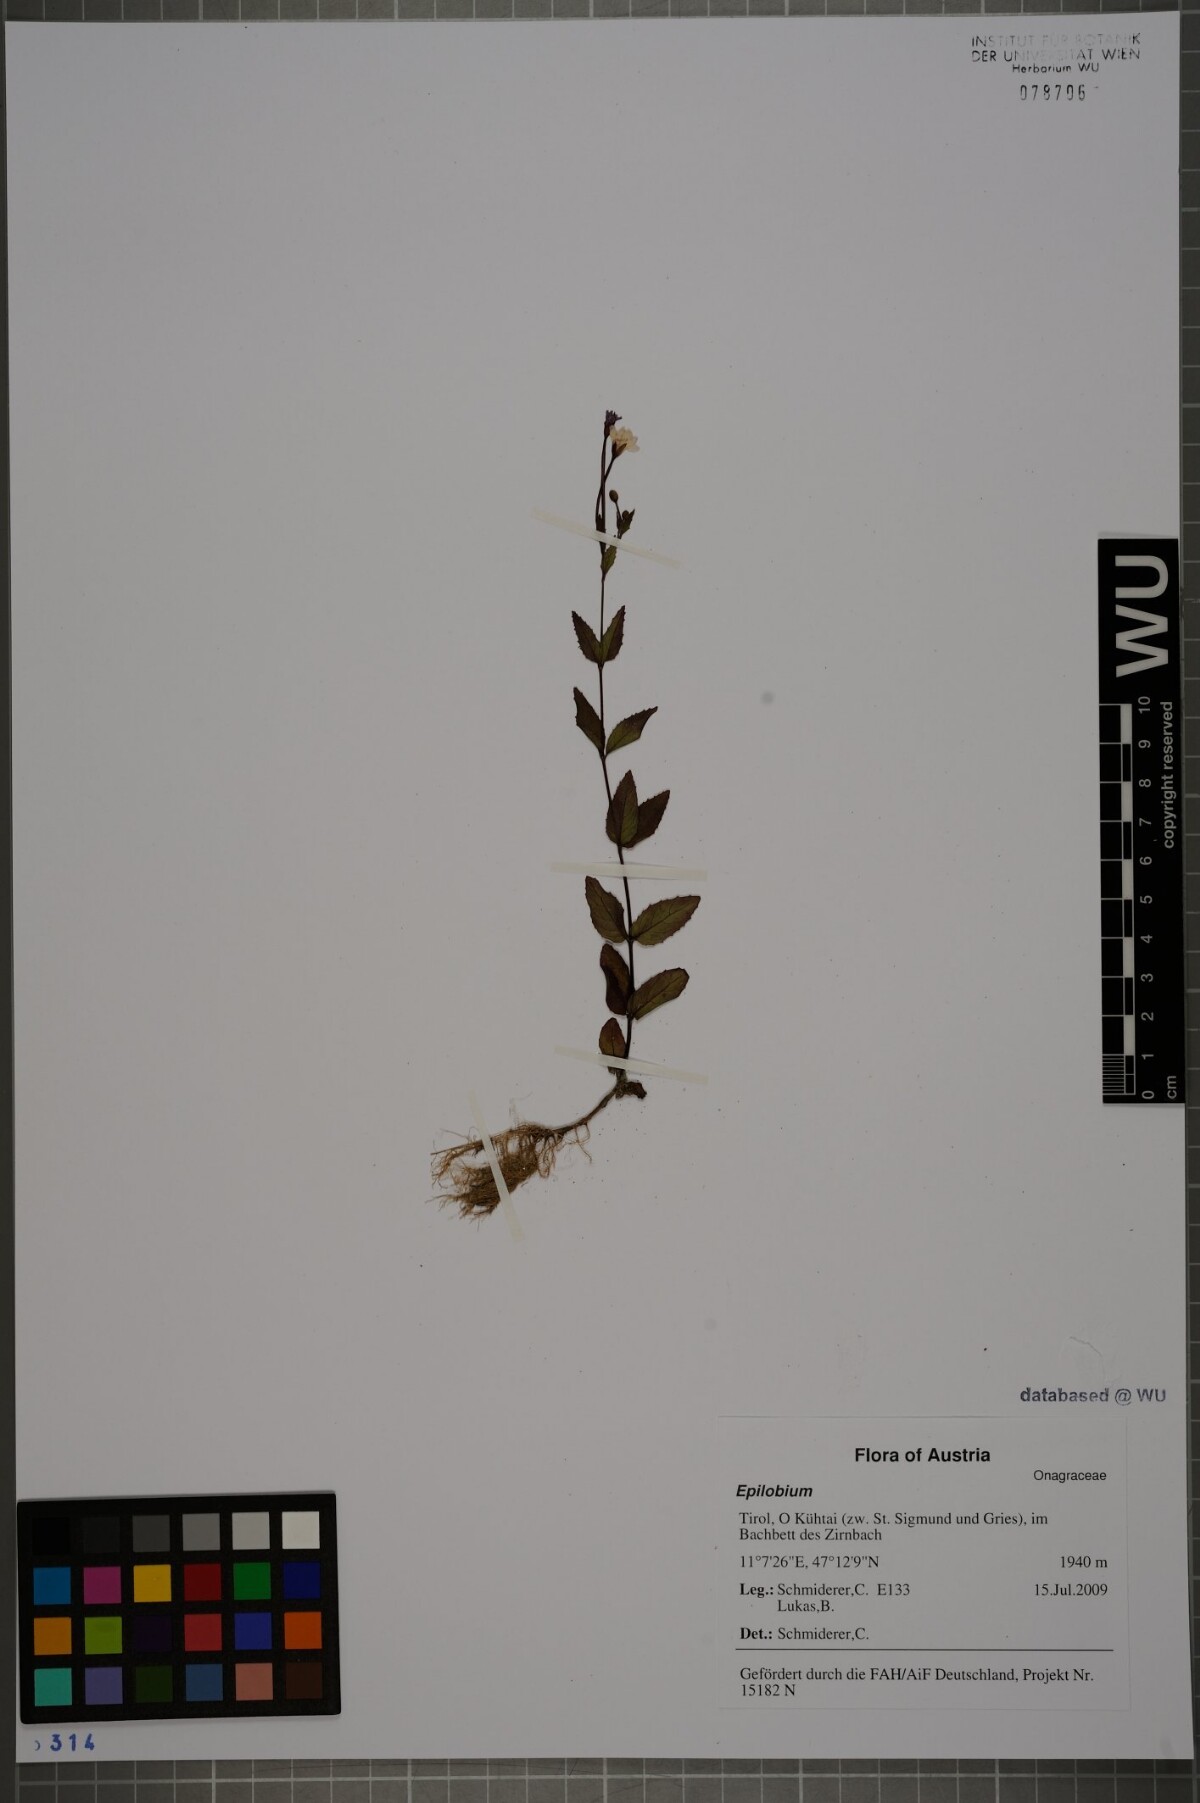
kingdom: Plantae
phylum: Tracheophyta
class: Magnoliopsida
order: Myrtales
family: Onagraceae
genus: Epilobium
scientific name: Epilobium montanum
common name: Broad-leaved willowherb
